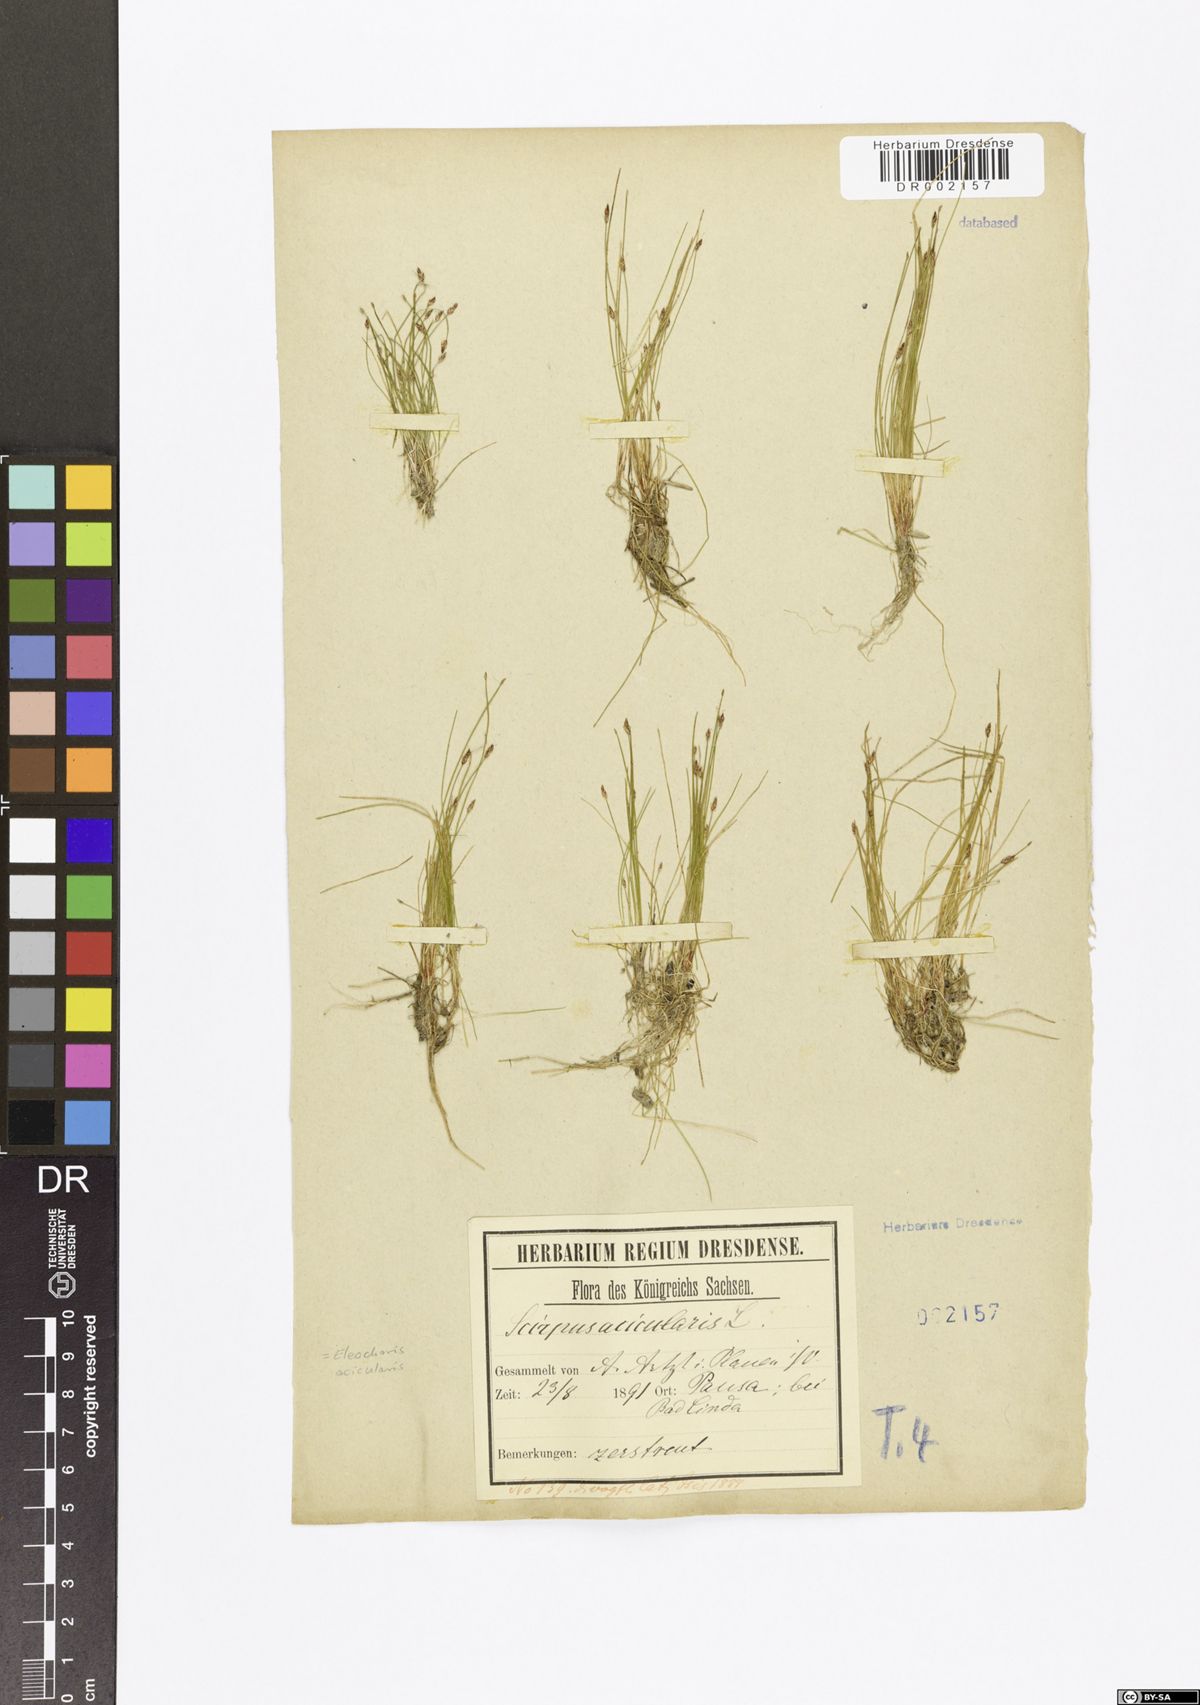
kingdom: Plantae
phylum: Tracheophyta
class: Liliopsida
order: Poales
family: Cyperaceae
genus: Eleocharis
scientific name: Eleocharis acicularis
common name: Needle spike-rush
